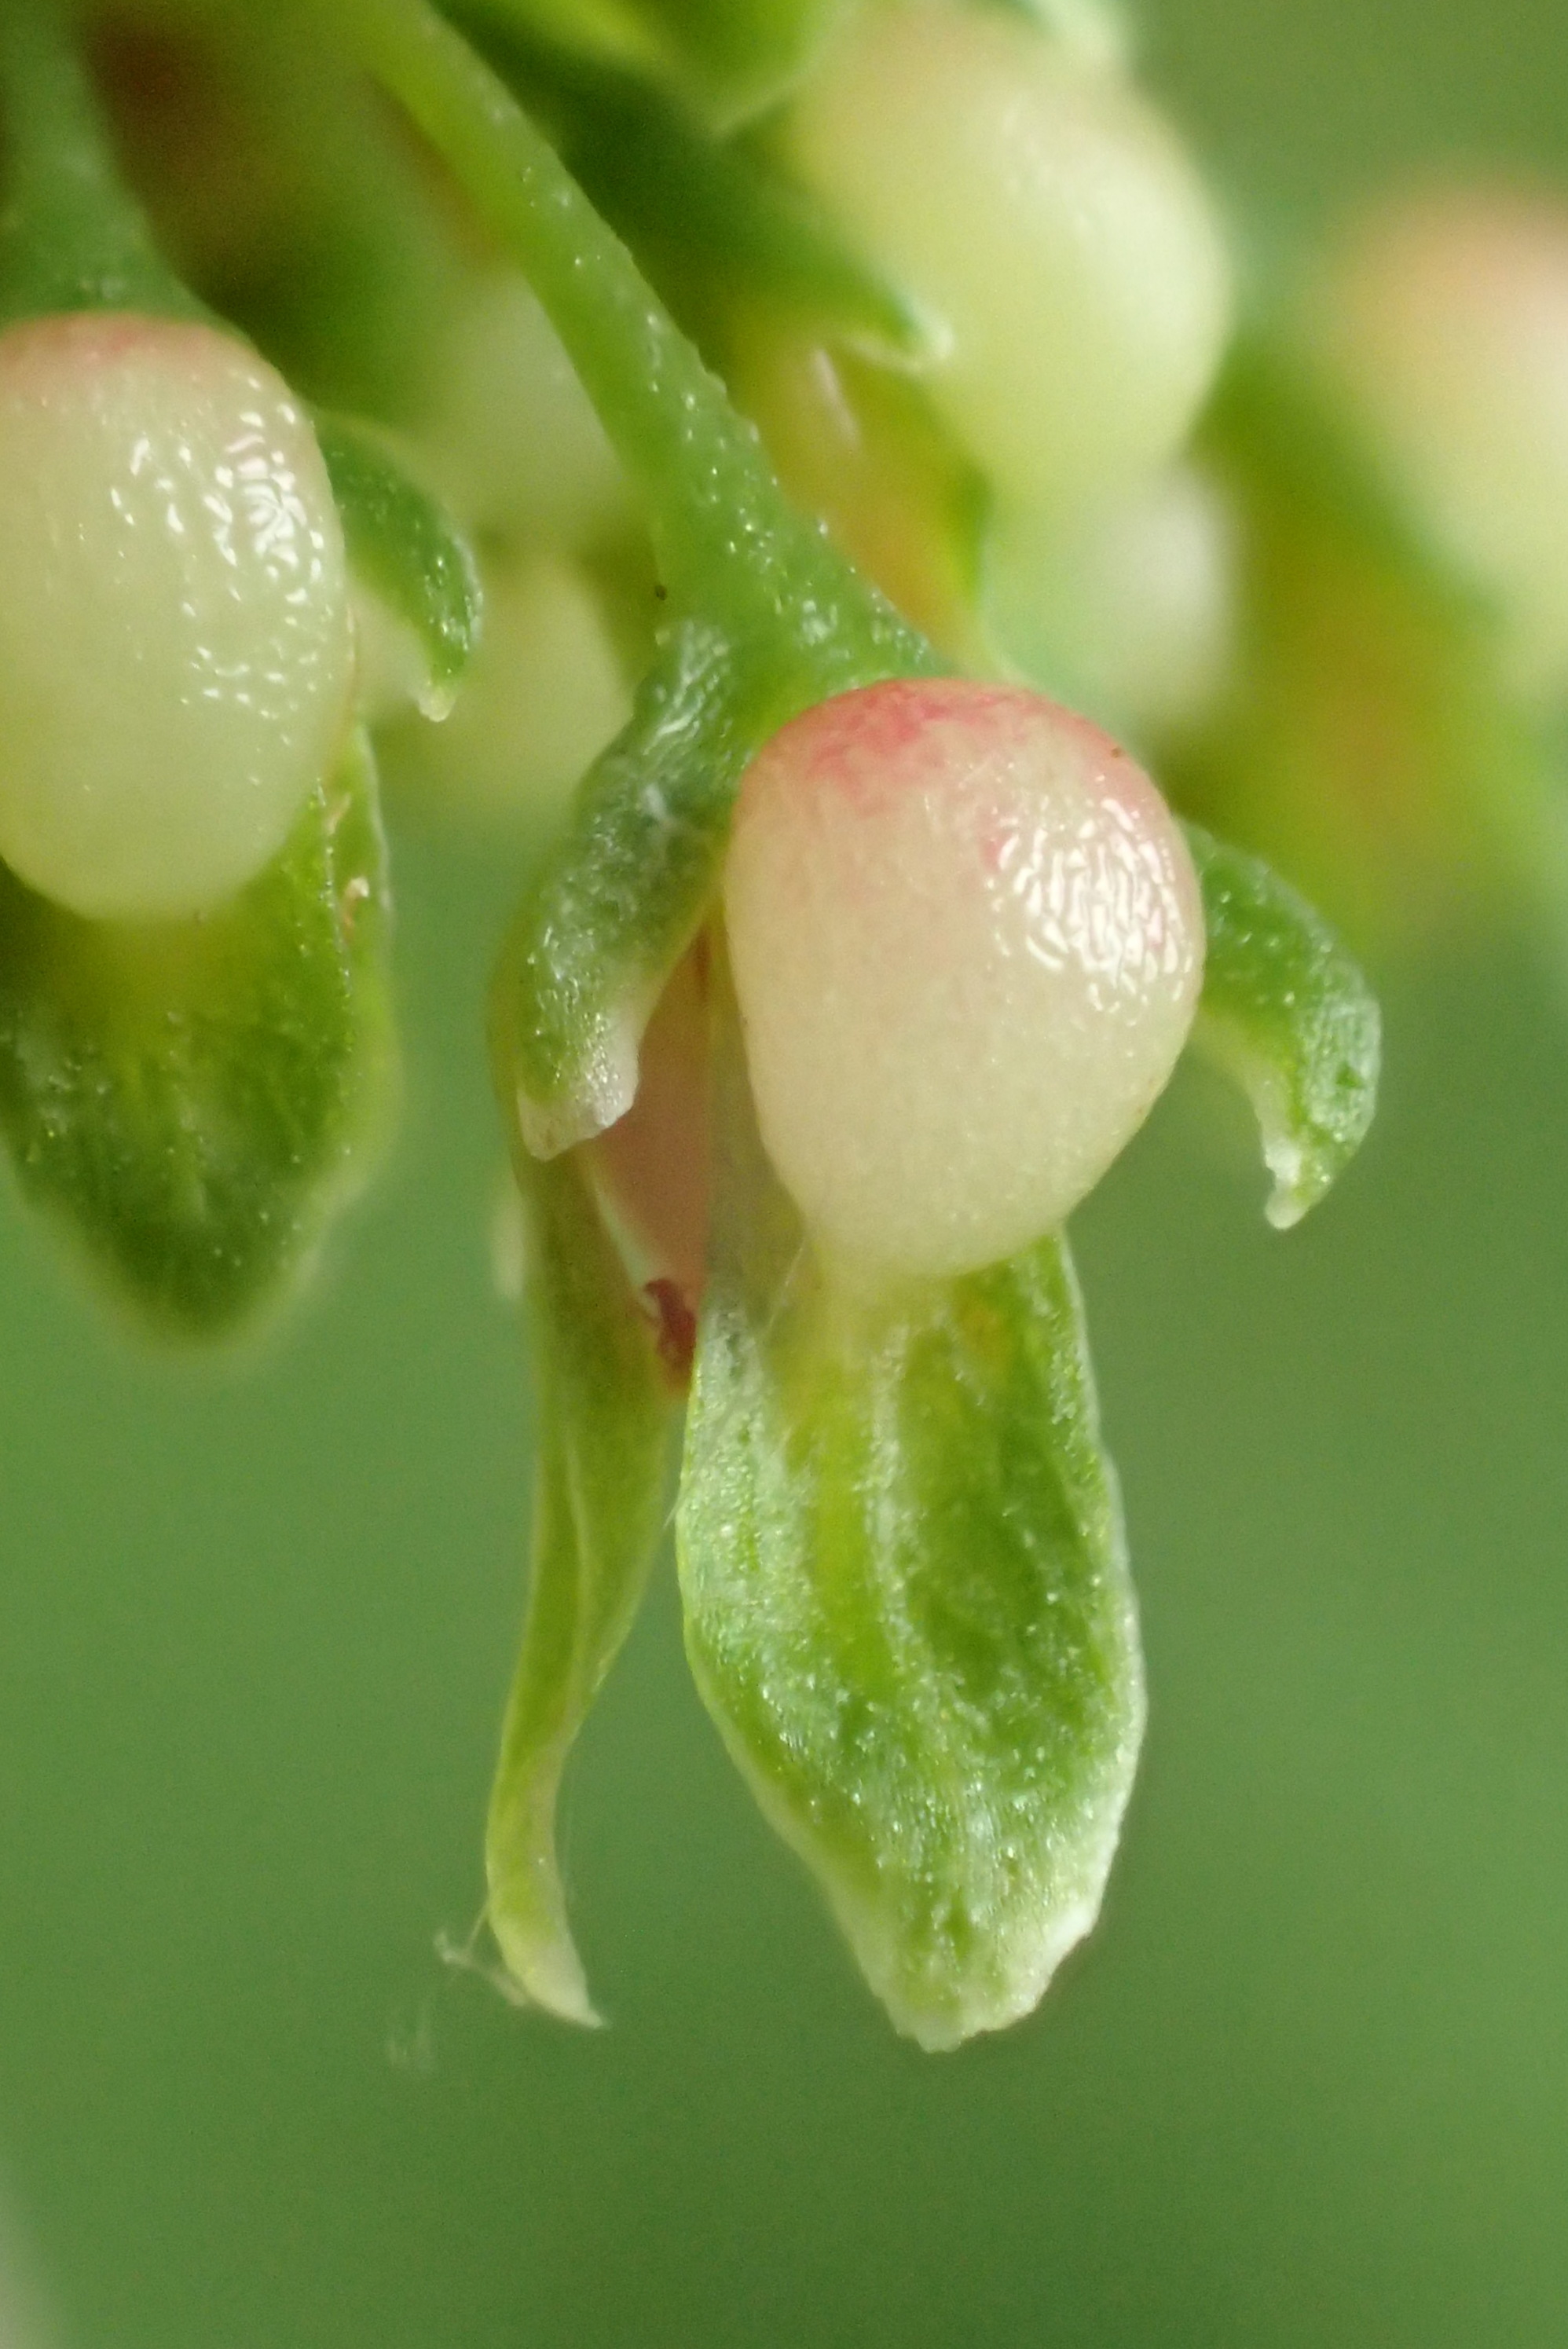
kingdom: Plantae
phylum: Tracheophyta
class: Magnoliopsida
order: Caryophyllales
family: Polygonaceae
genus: Rumex
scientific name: Rumex sanguineus
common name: Skov-skræppe
